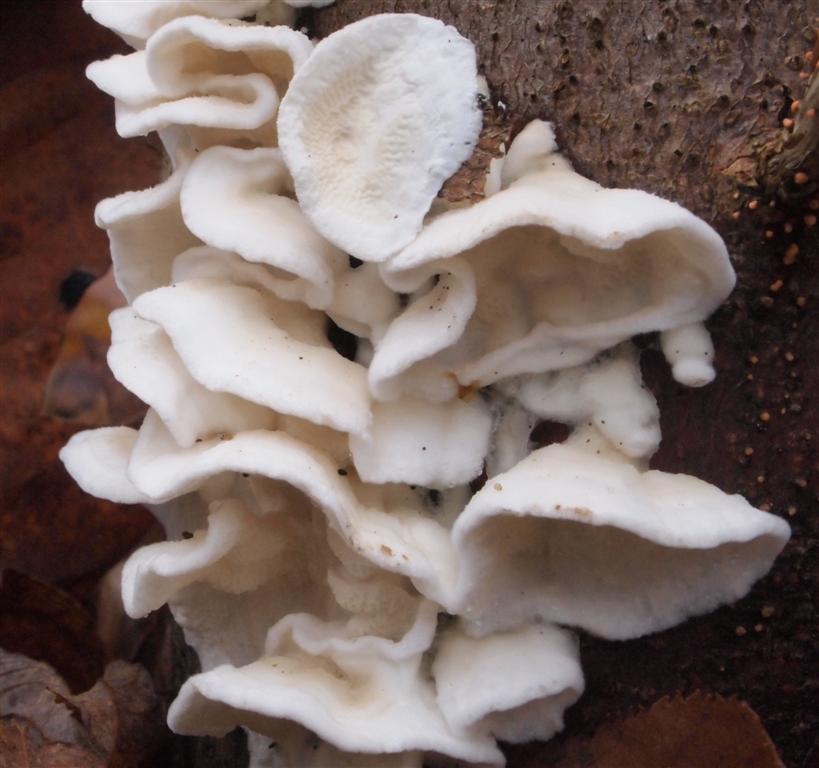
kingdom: Fungi
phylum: Basidiomycota
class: Agaricomycetes
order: Polyporales
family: Irpicaceae
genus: Byssomerulius
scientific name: Byssomerulius corium
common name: læder-åresvamp
